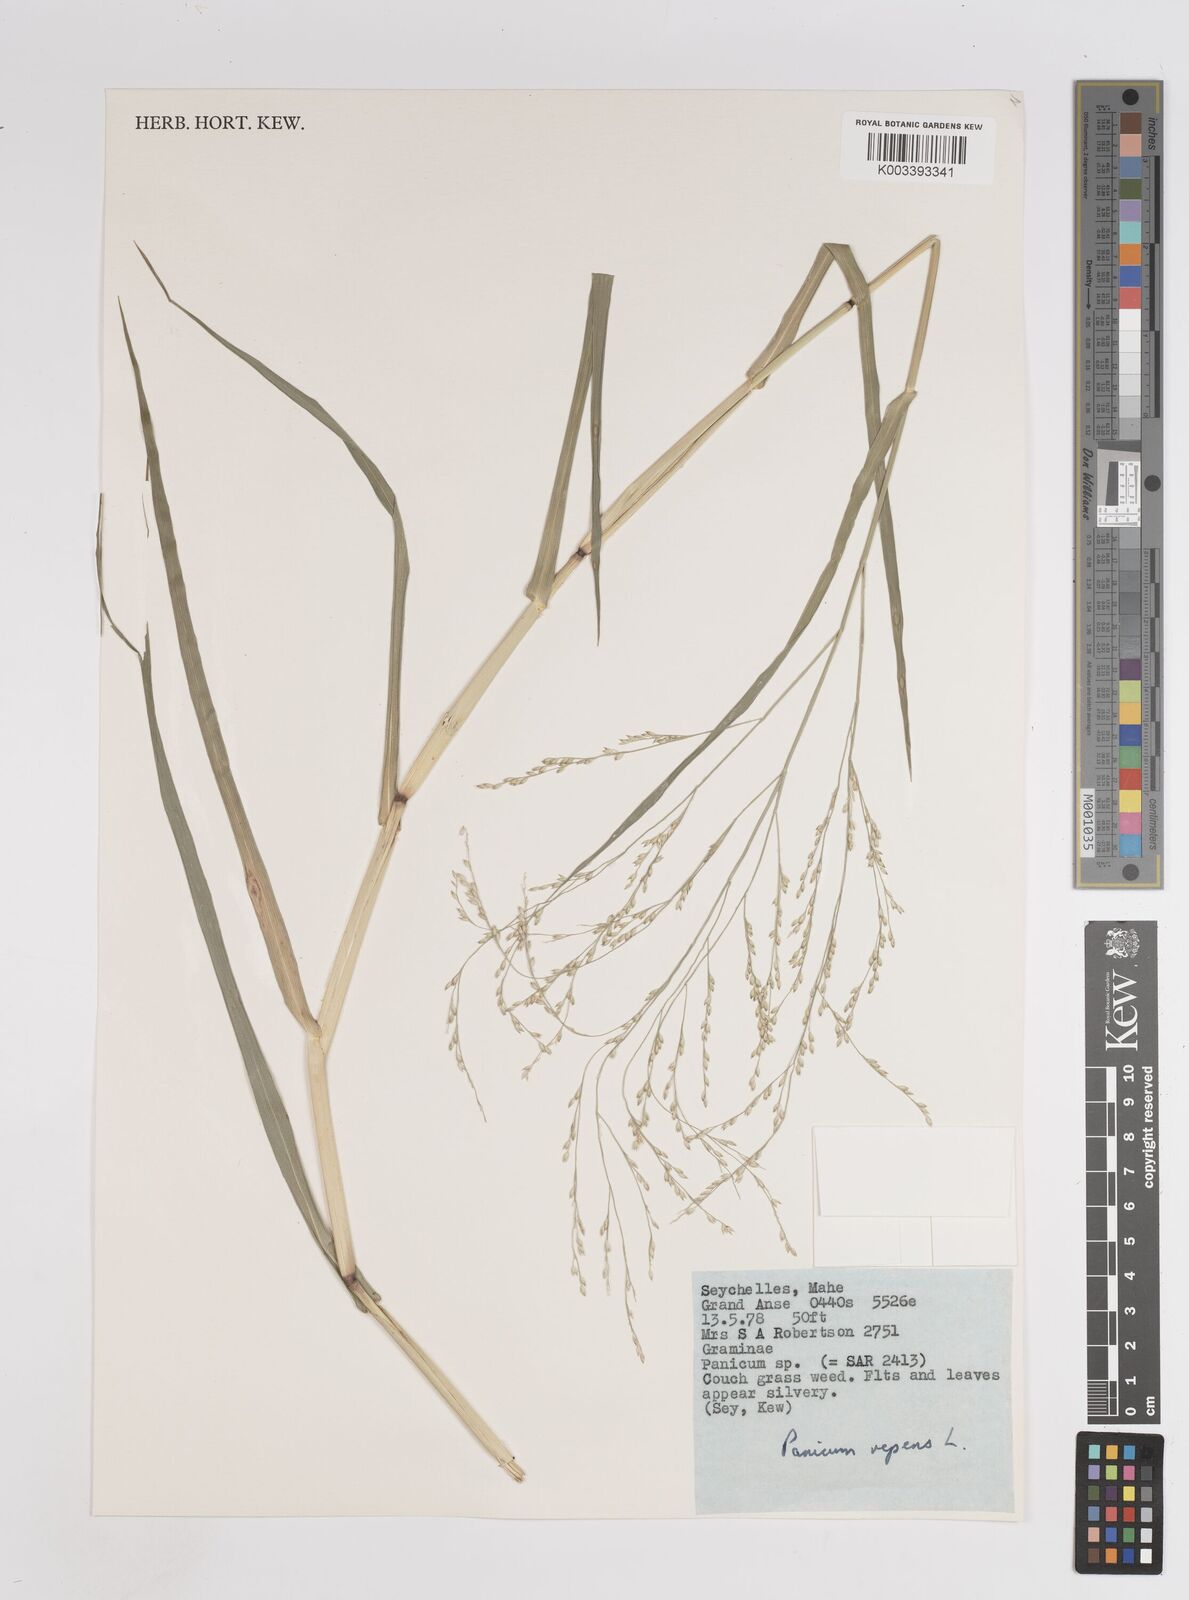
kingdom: Plantae
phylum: Tracheophyta
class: Liliopsida
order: Poales
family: Poaceae
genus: Panicum
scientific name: Panicum repens
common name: Torpedo grass
